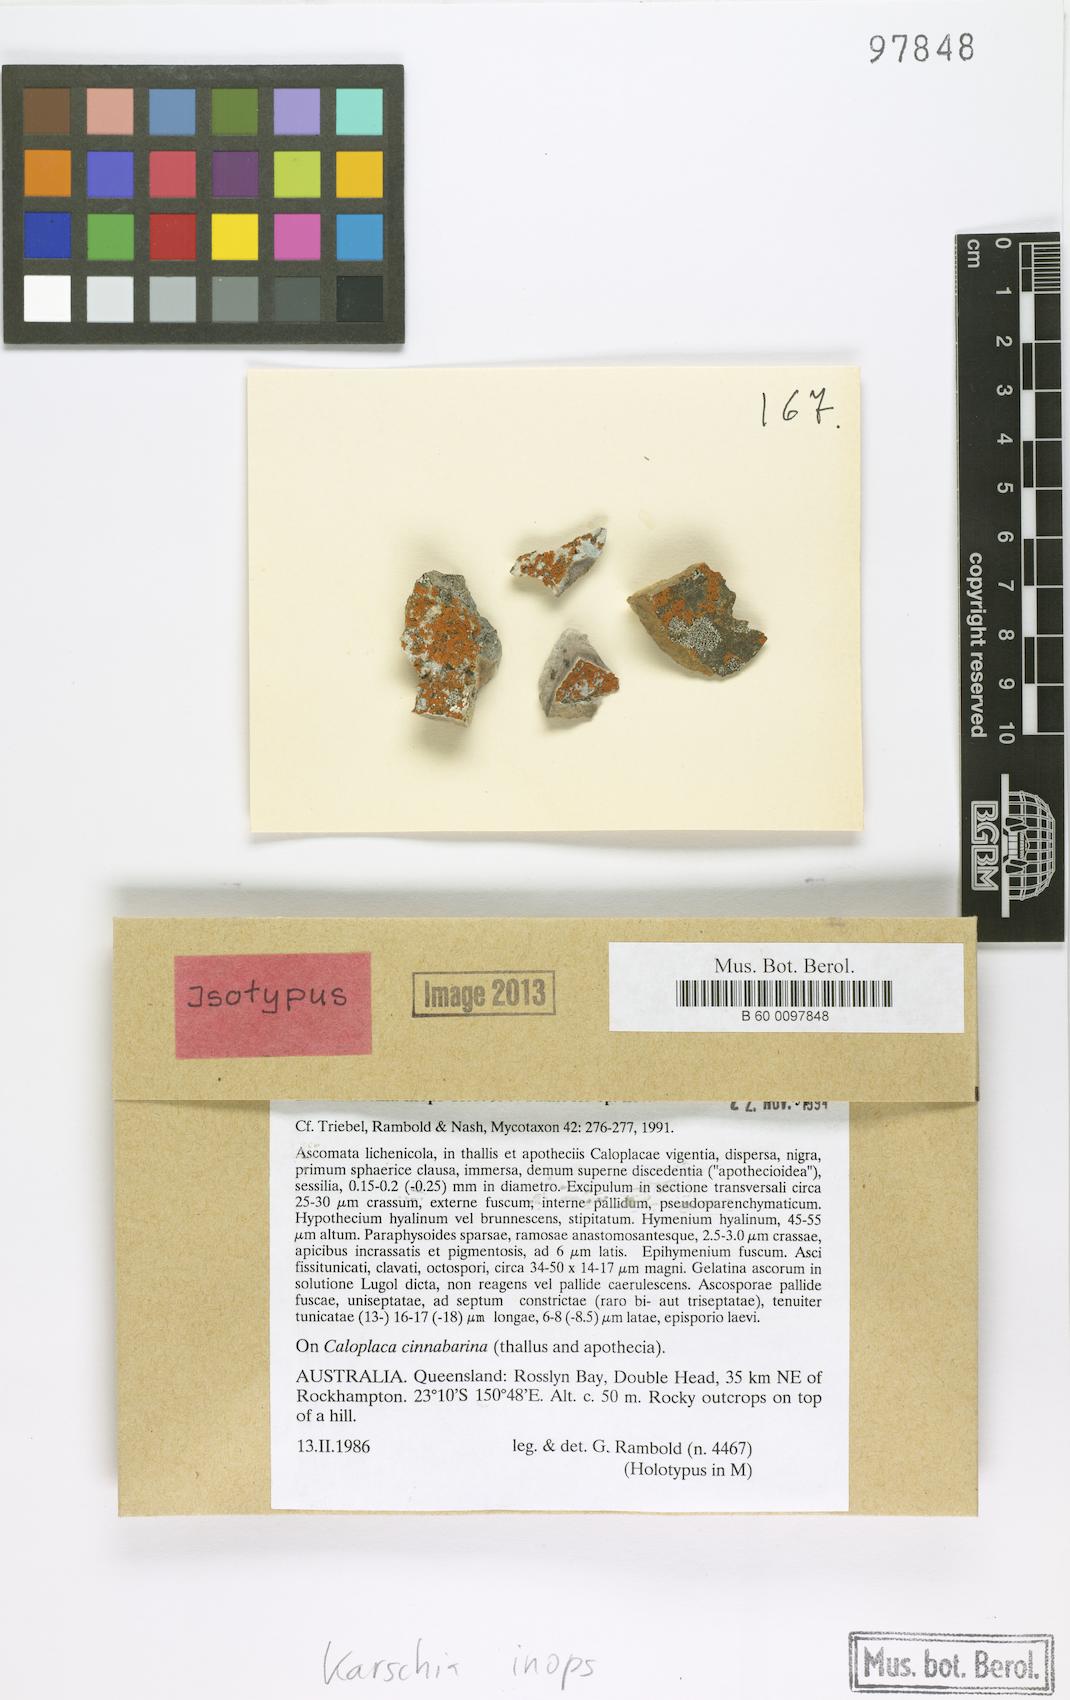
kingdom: Fungi
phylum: Ascomycota
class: Dothideomycetes
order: Dothideales
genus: Buelliella
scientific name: Buelliella inops
